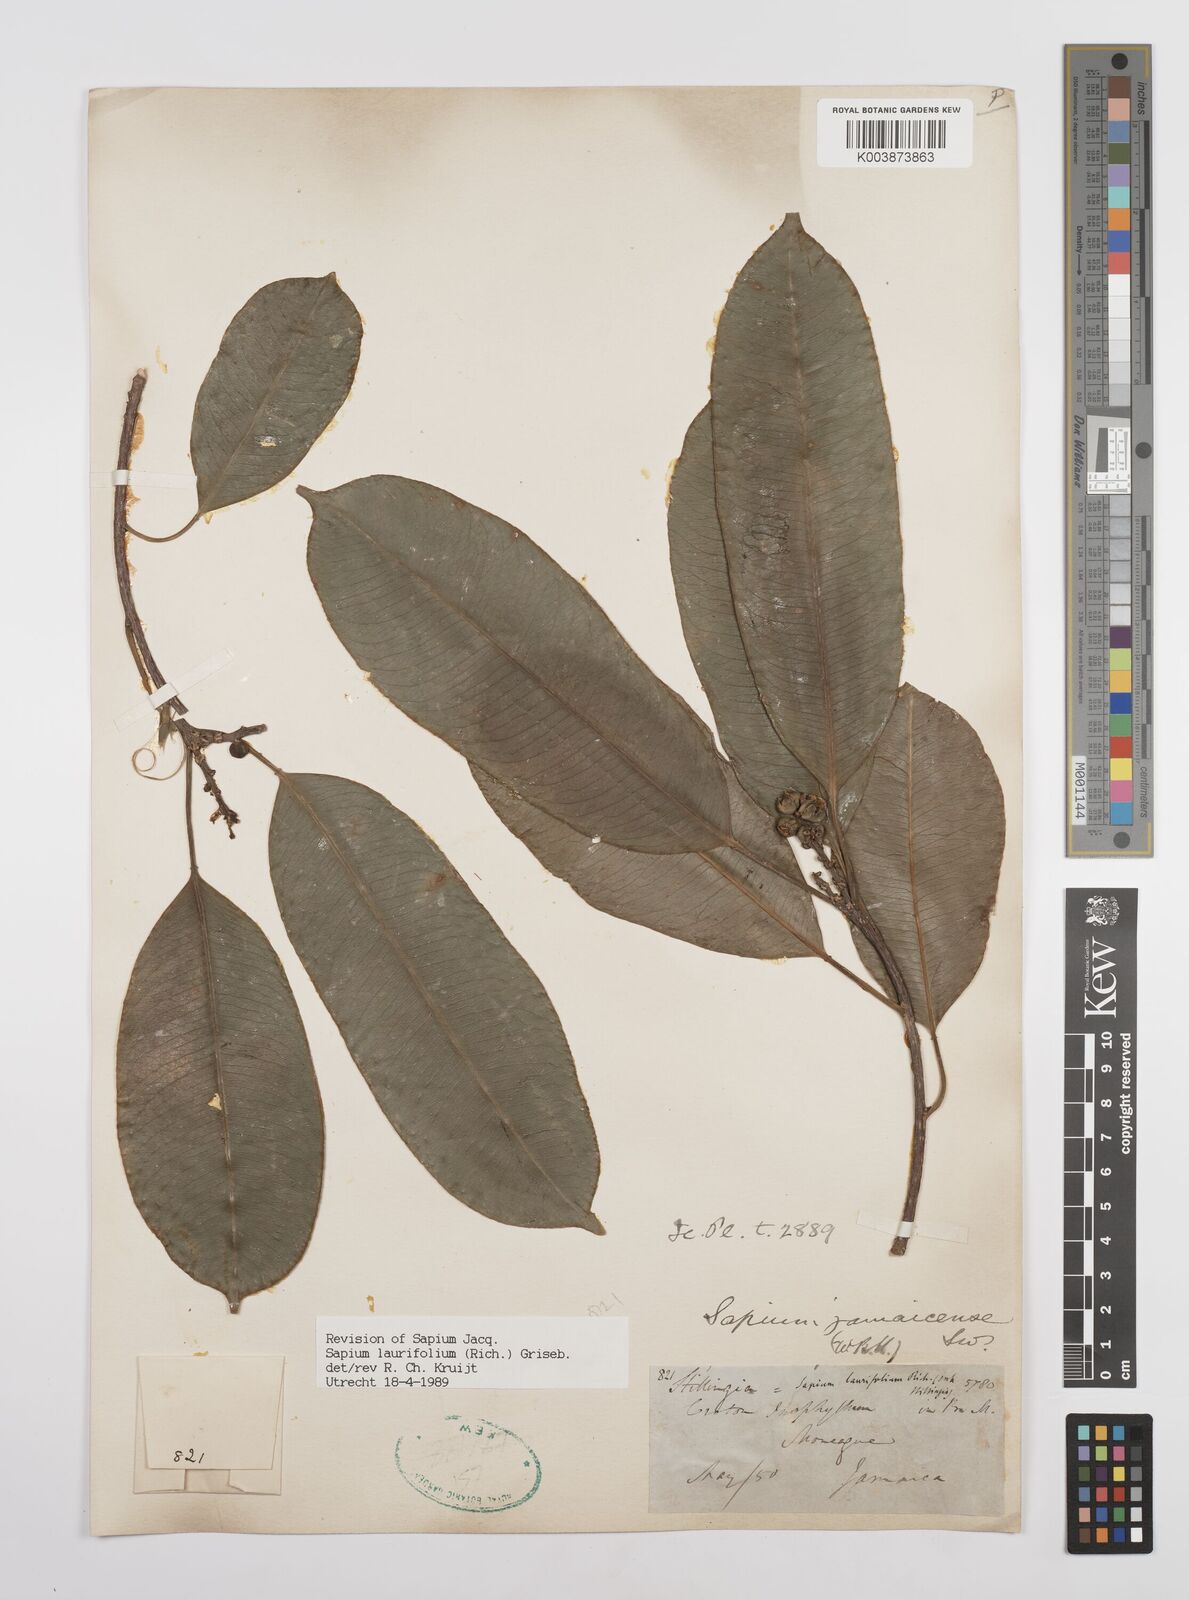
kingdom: Plantae
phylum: Tracheophyta
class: Magnoliopsida
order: Malpighiales
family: Euphorbiaceae
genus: Sapium
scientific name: Sapium glandulosum
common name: Milktree
